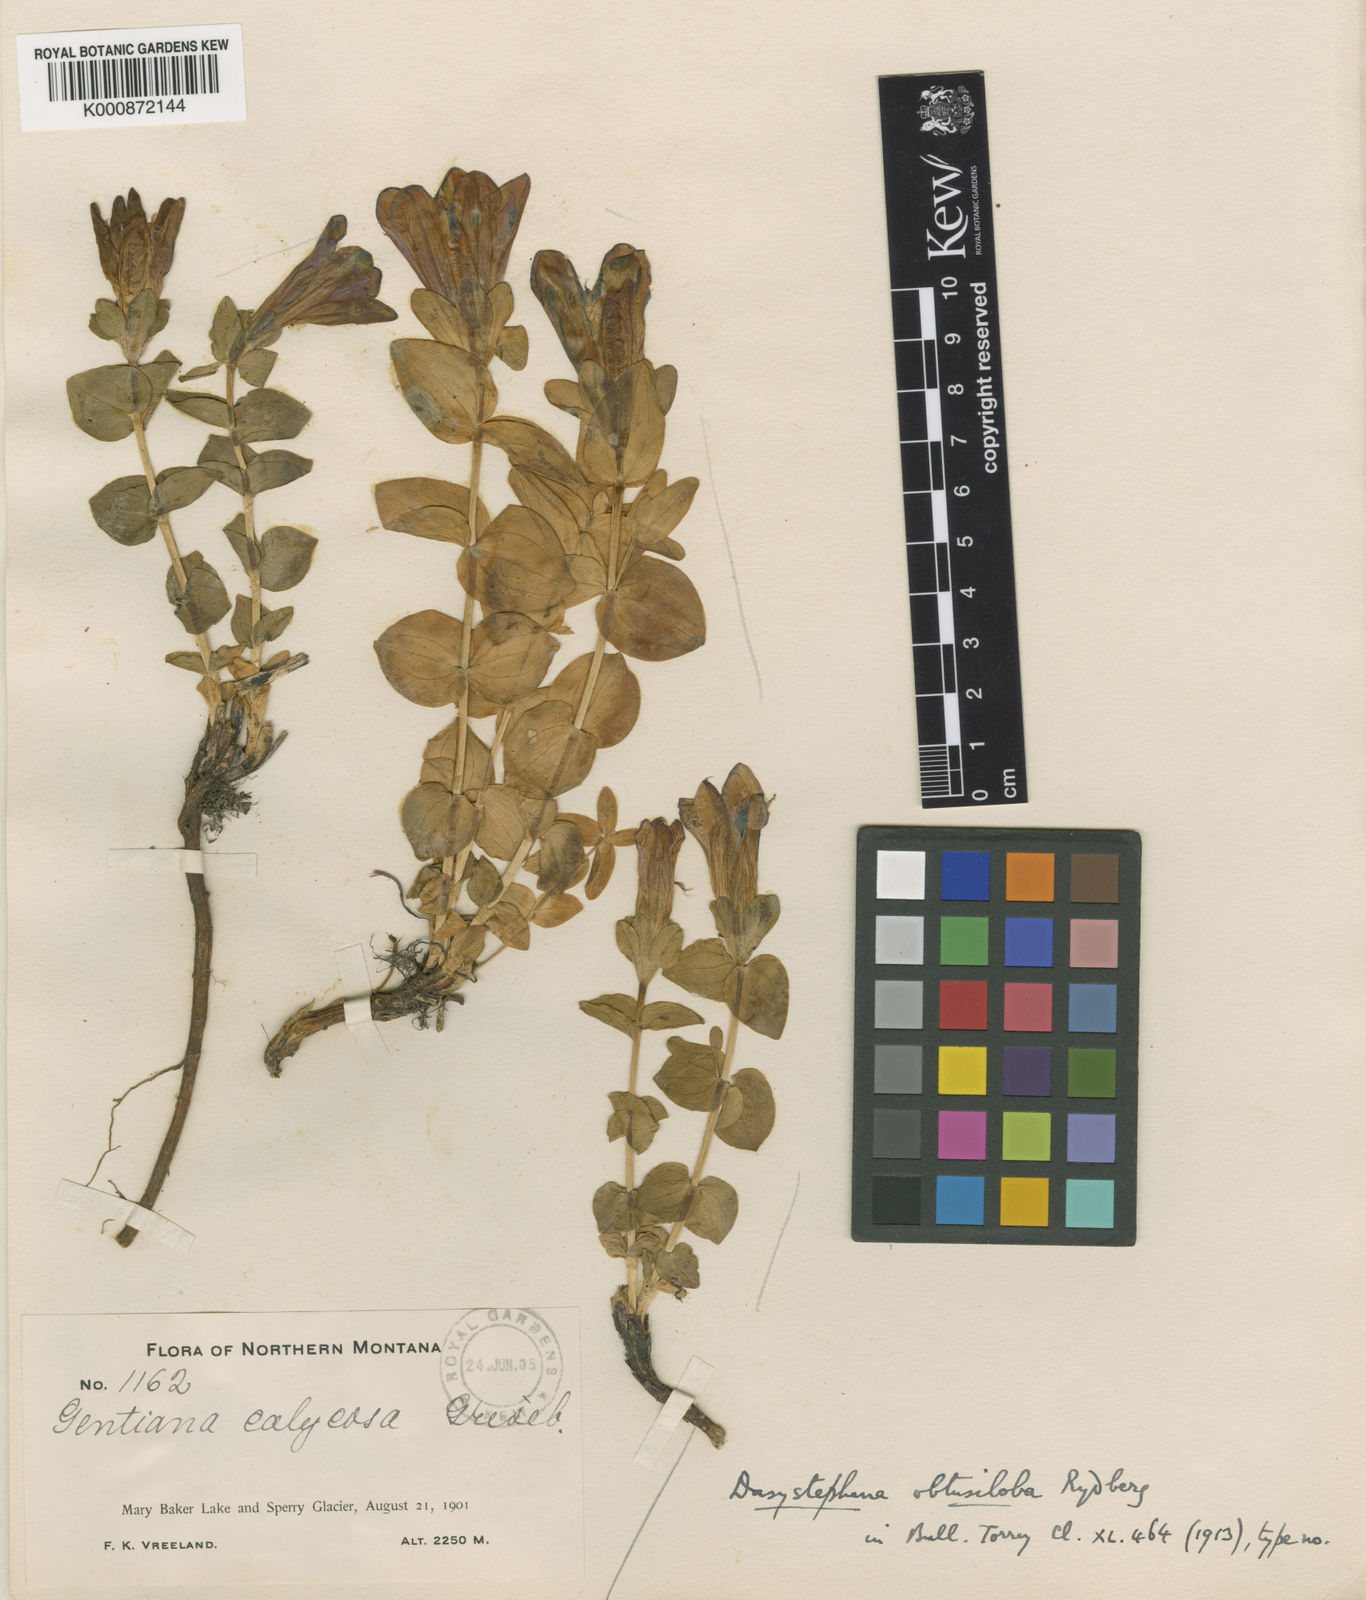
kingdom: Plantae
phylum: Tracheophyta
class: Magnoliopsida
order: Gentianales
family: Gentianaceae
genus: Gentiana
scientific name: Gentiana calycosa
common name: Rainier pleated gentian
